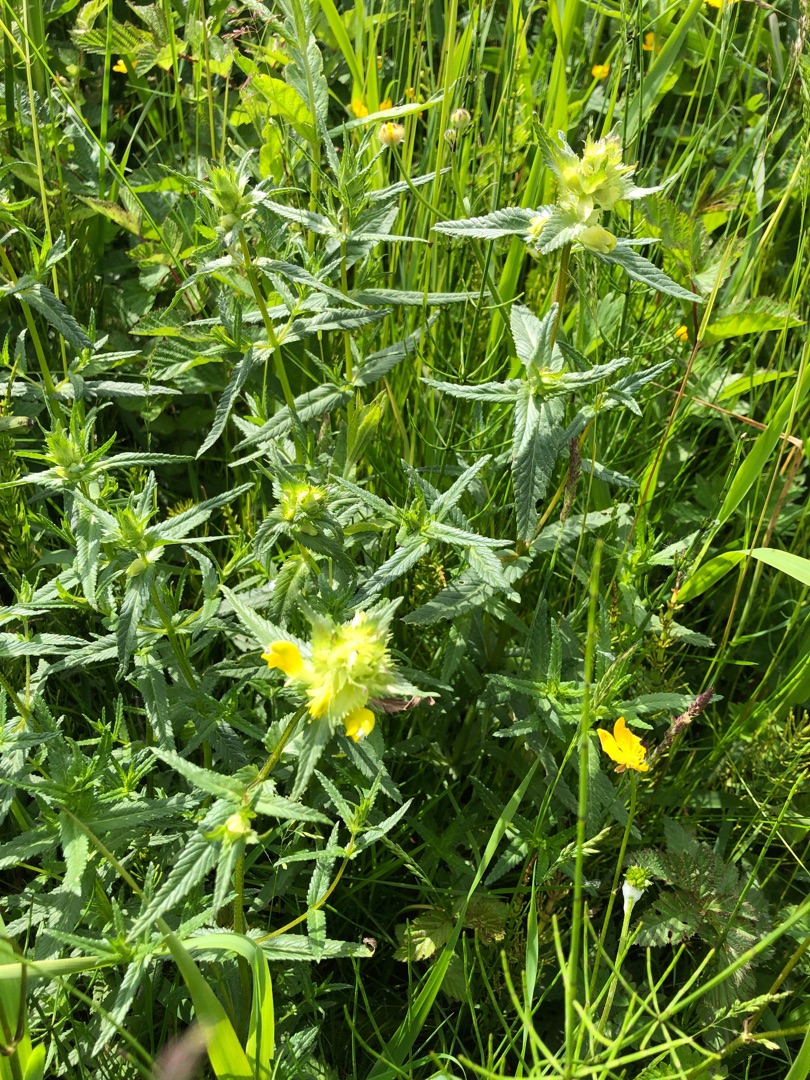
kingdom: Plantae
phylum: Tracheophyta
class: Magnoliopsida
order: Lamiales
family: Orobanchaceae
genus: Rhinanthus
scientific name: Rhinanthus
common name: Stor skjaller
